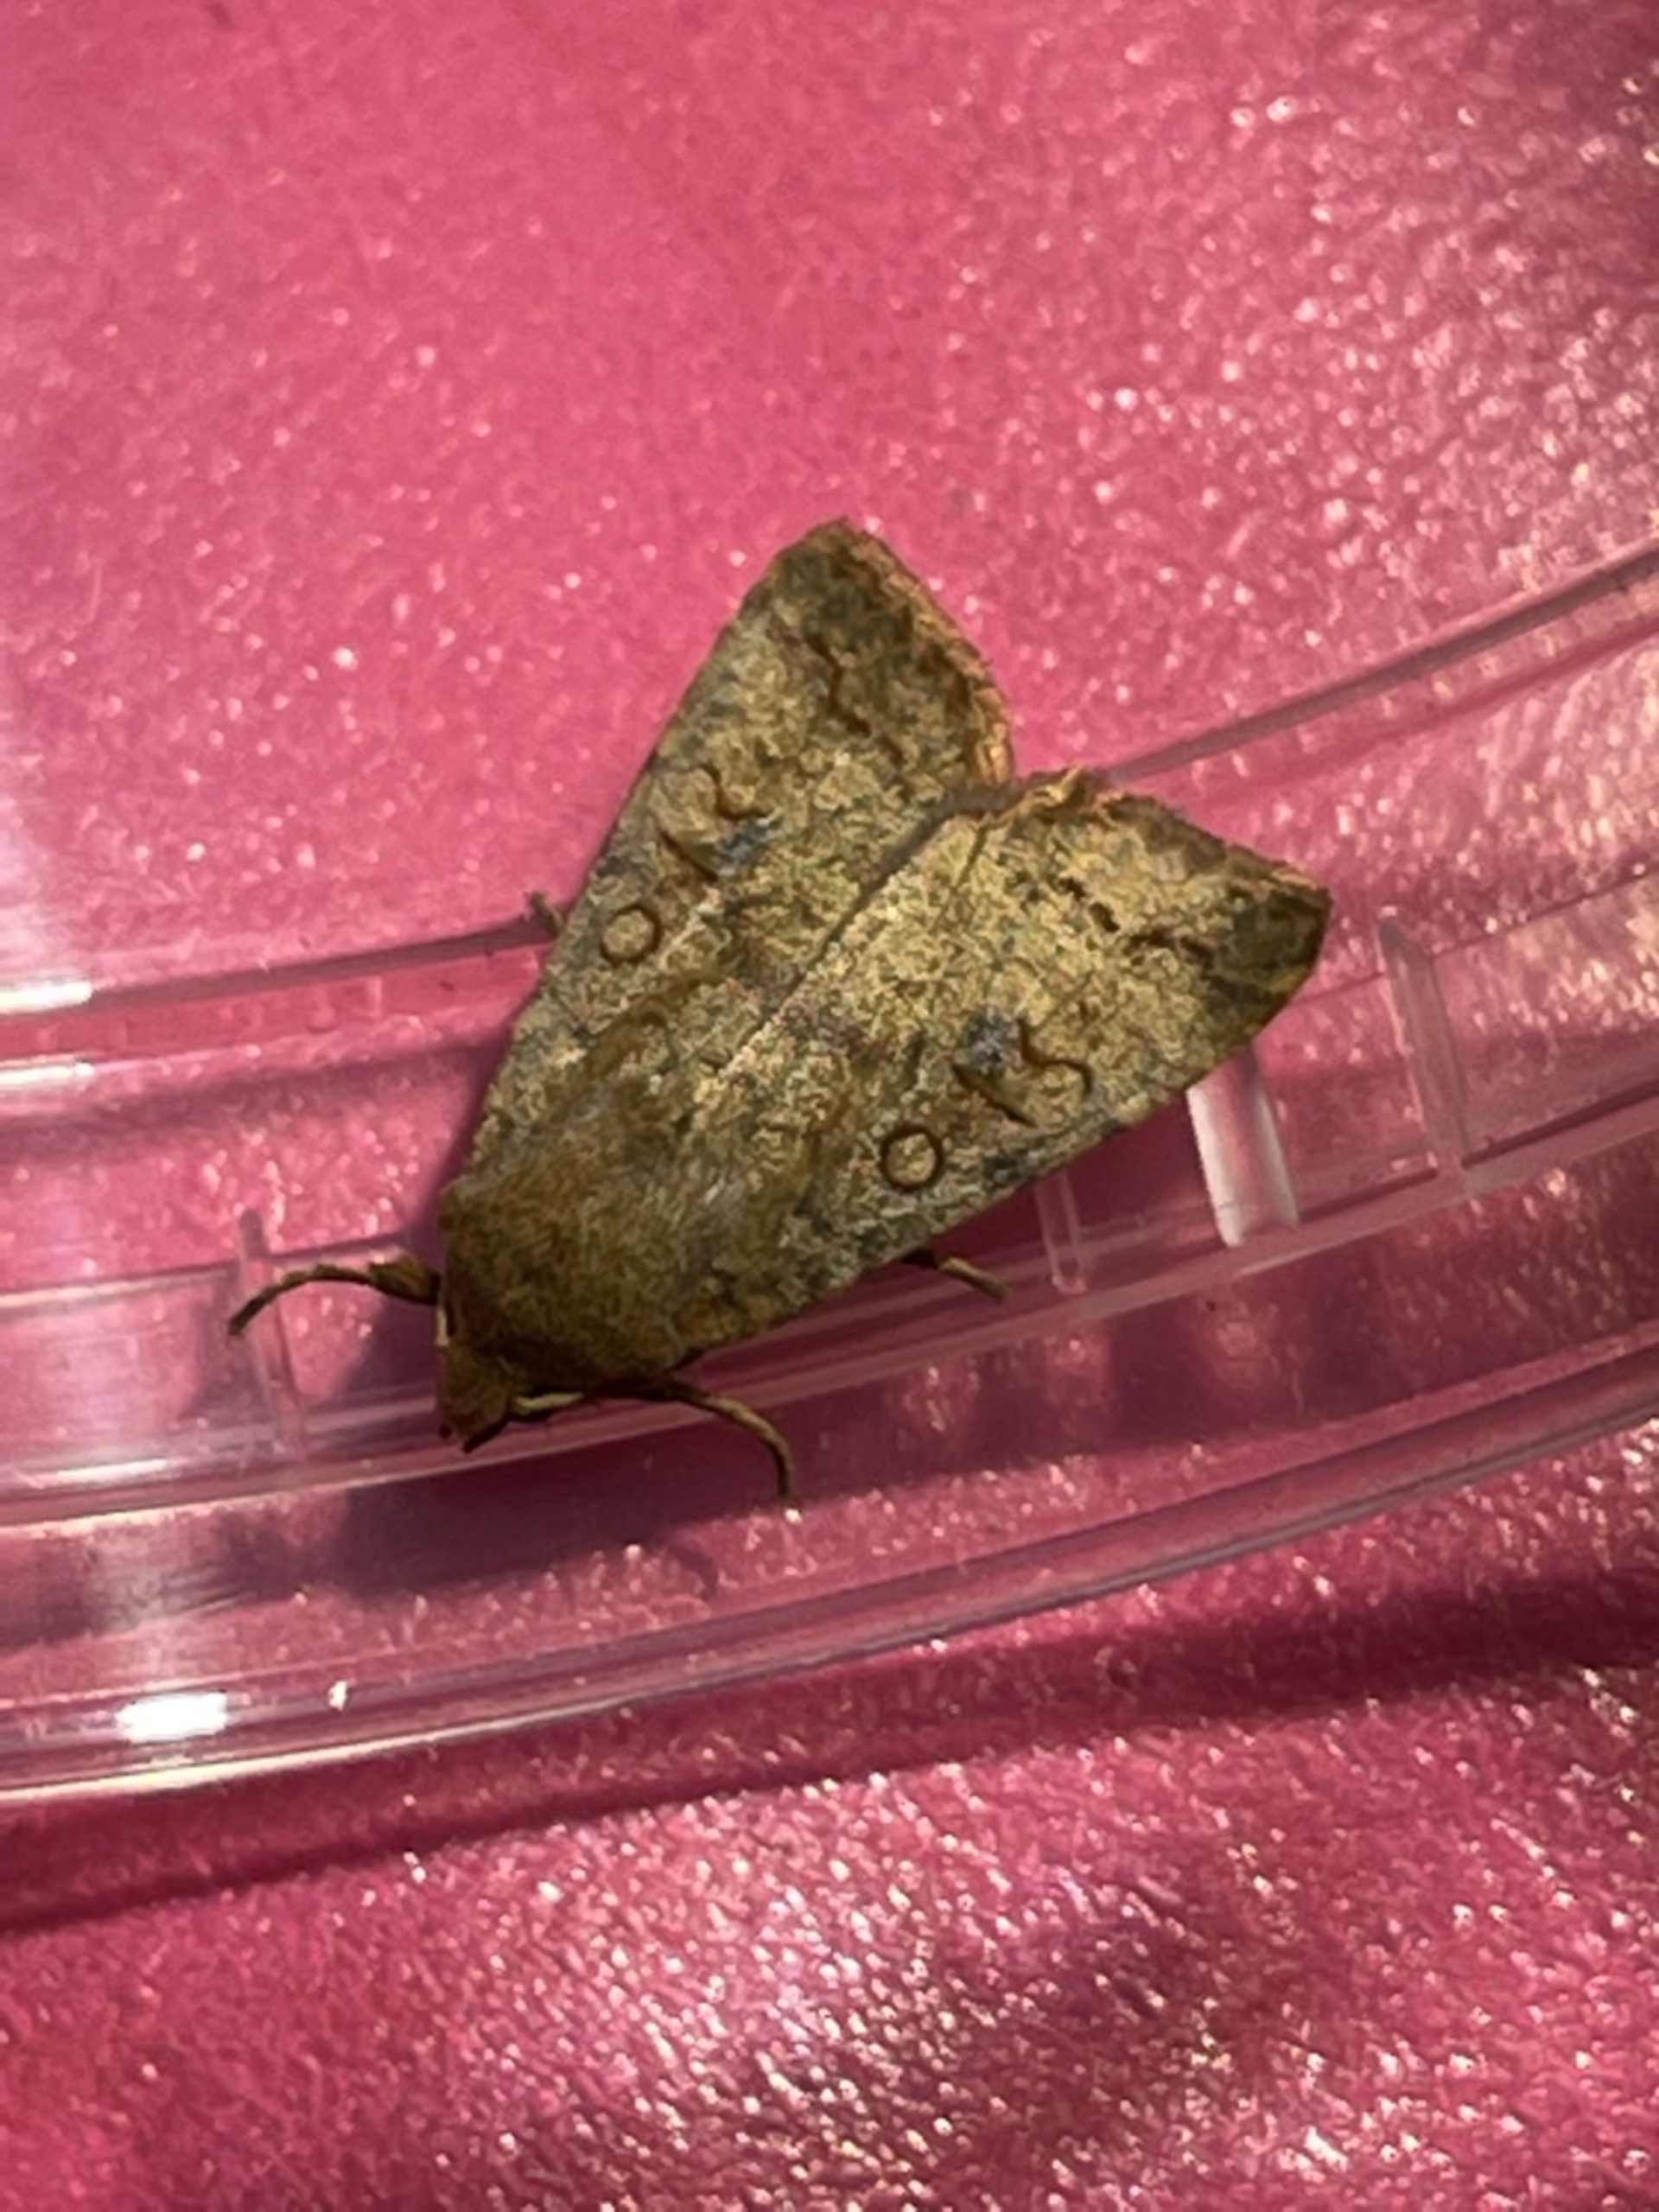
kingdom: Animalia
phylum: Arthropoda
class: Insecta
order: Lepidoptera
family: Noctuidae
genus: Sunira
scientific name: Sunira circellaris
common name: Cirkel-jordfarveugle
